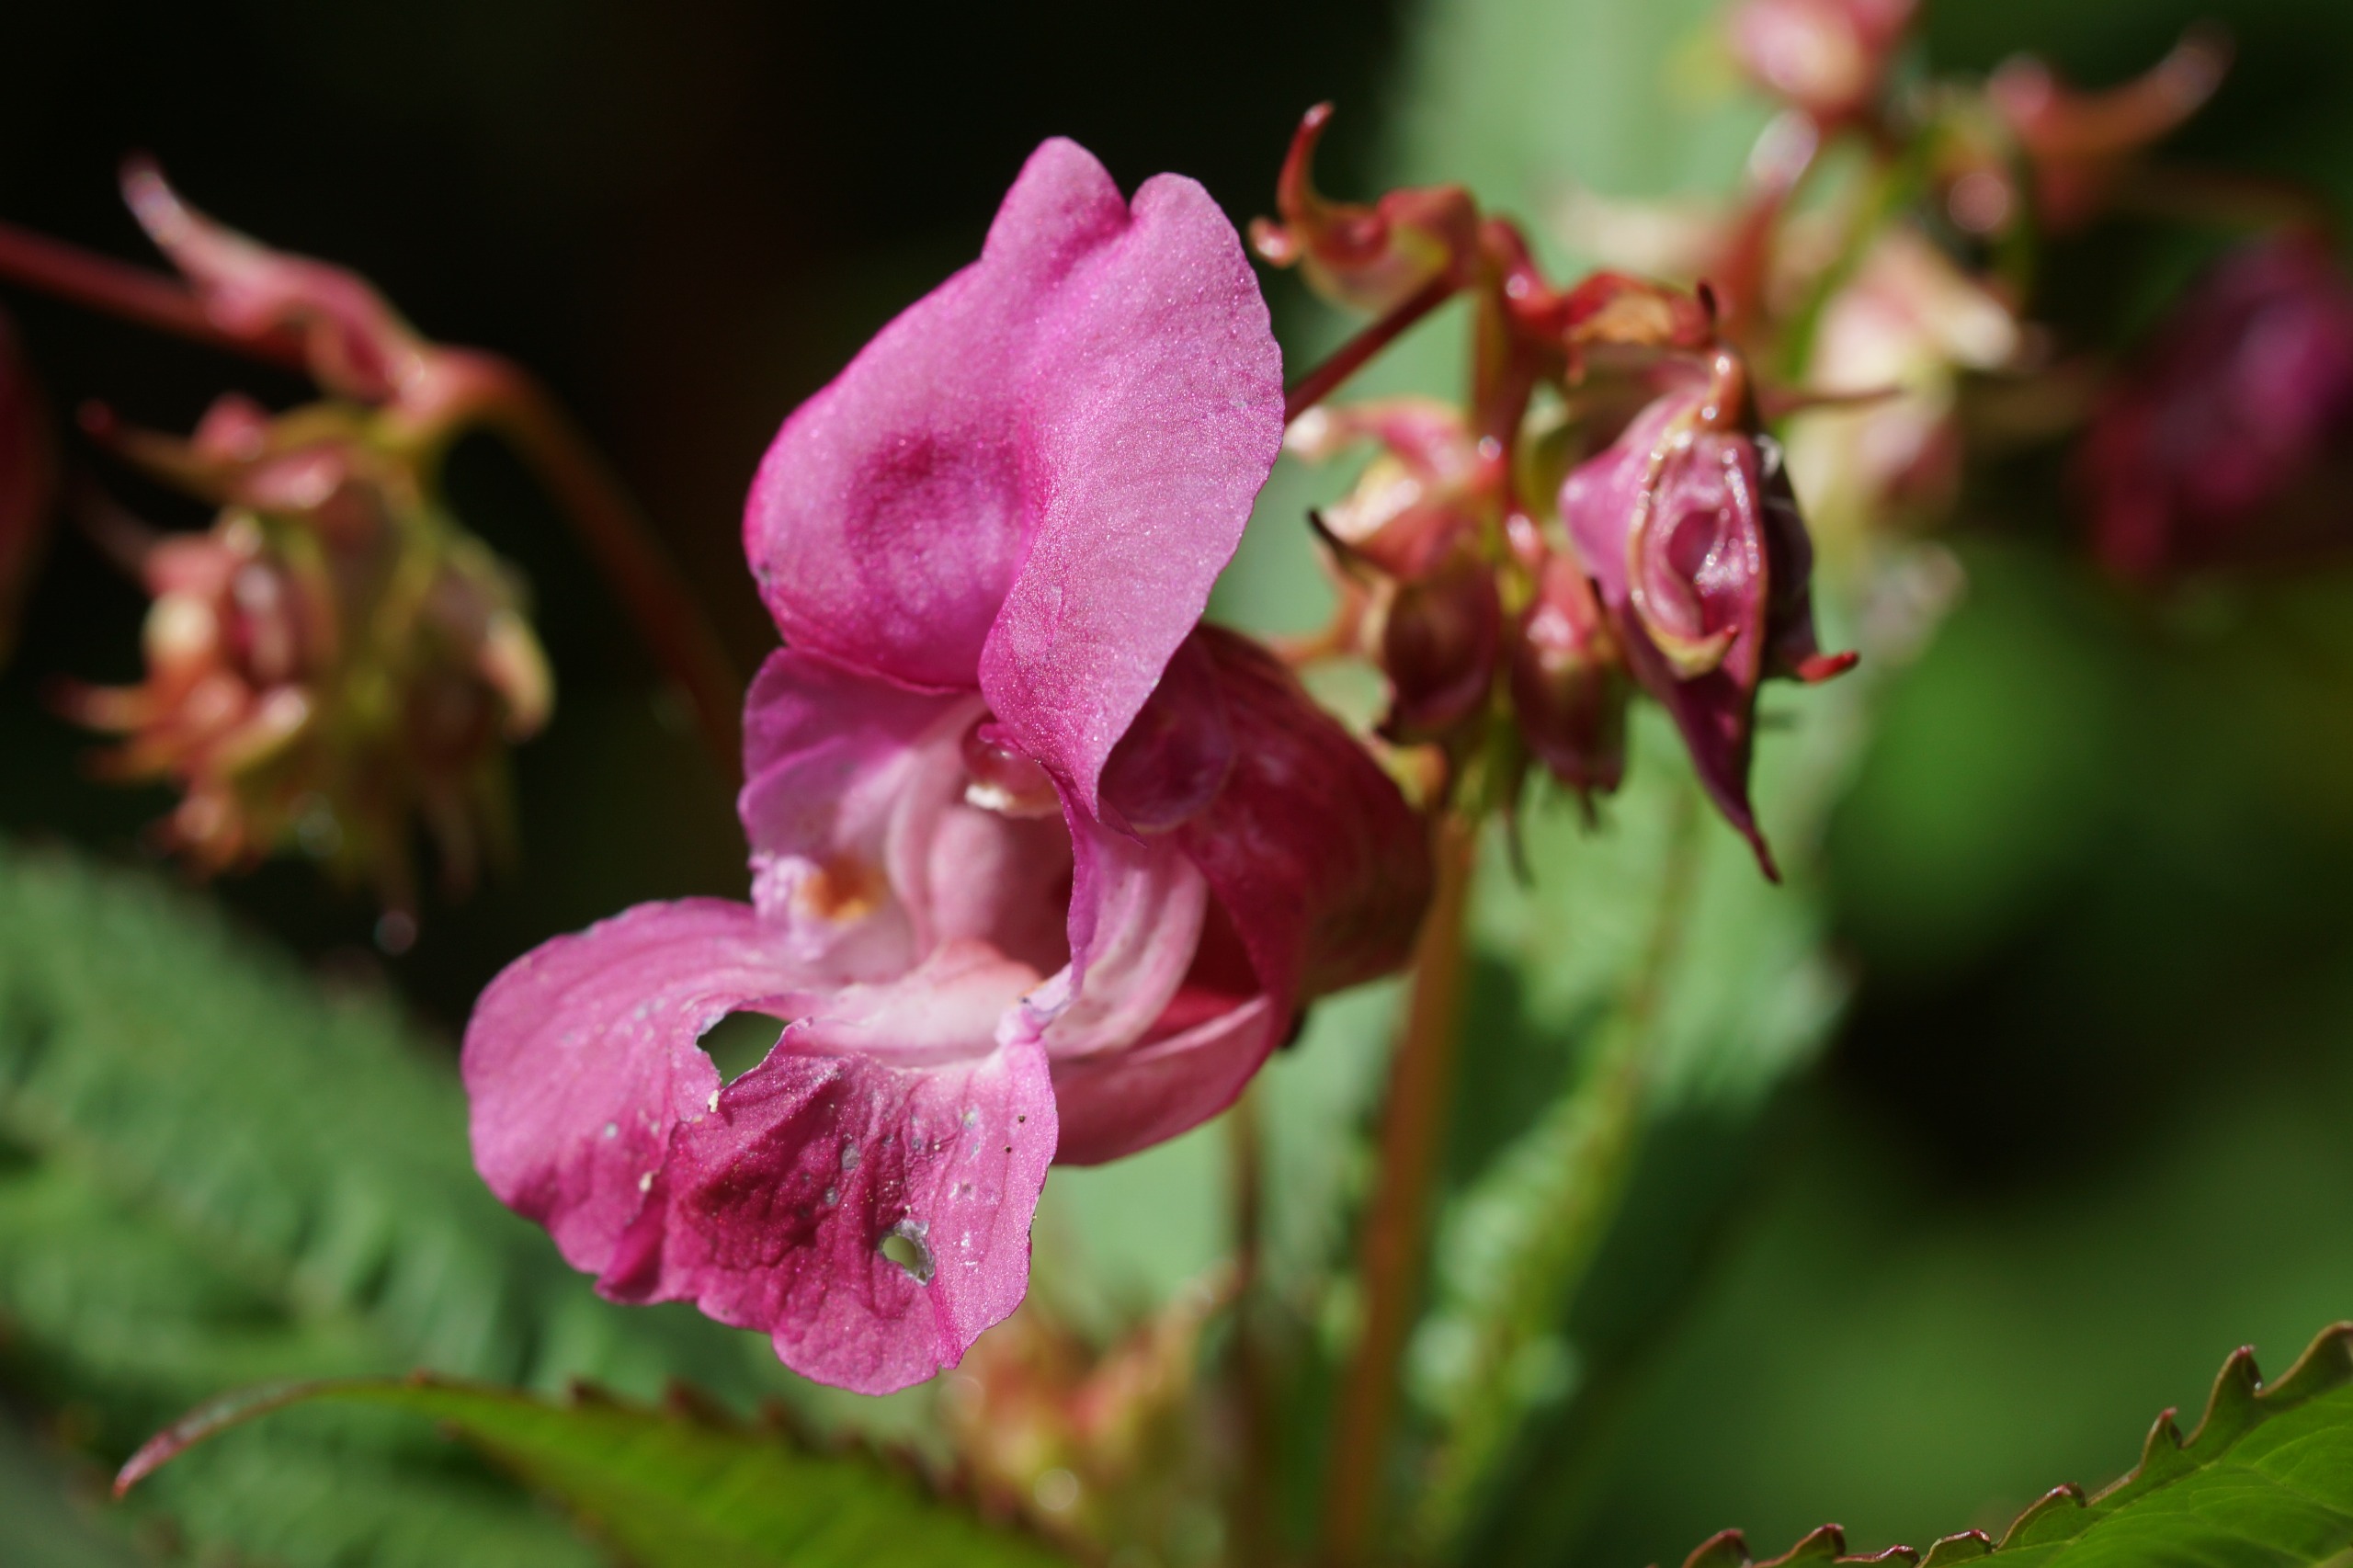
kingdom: Plantae
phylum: Tracheophyta
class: Magnoliopsida
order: Ericales
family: Balsaminaceae
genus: Impatiens
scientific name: Impatiens glandulifera
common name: Kæmpe-balsamin
